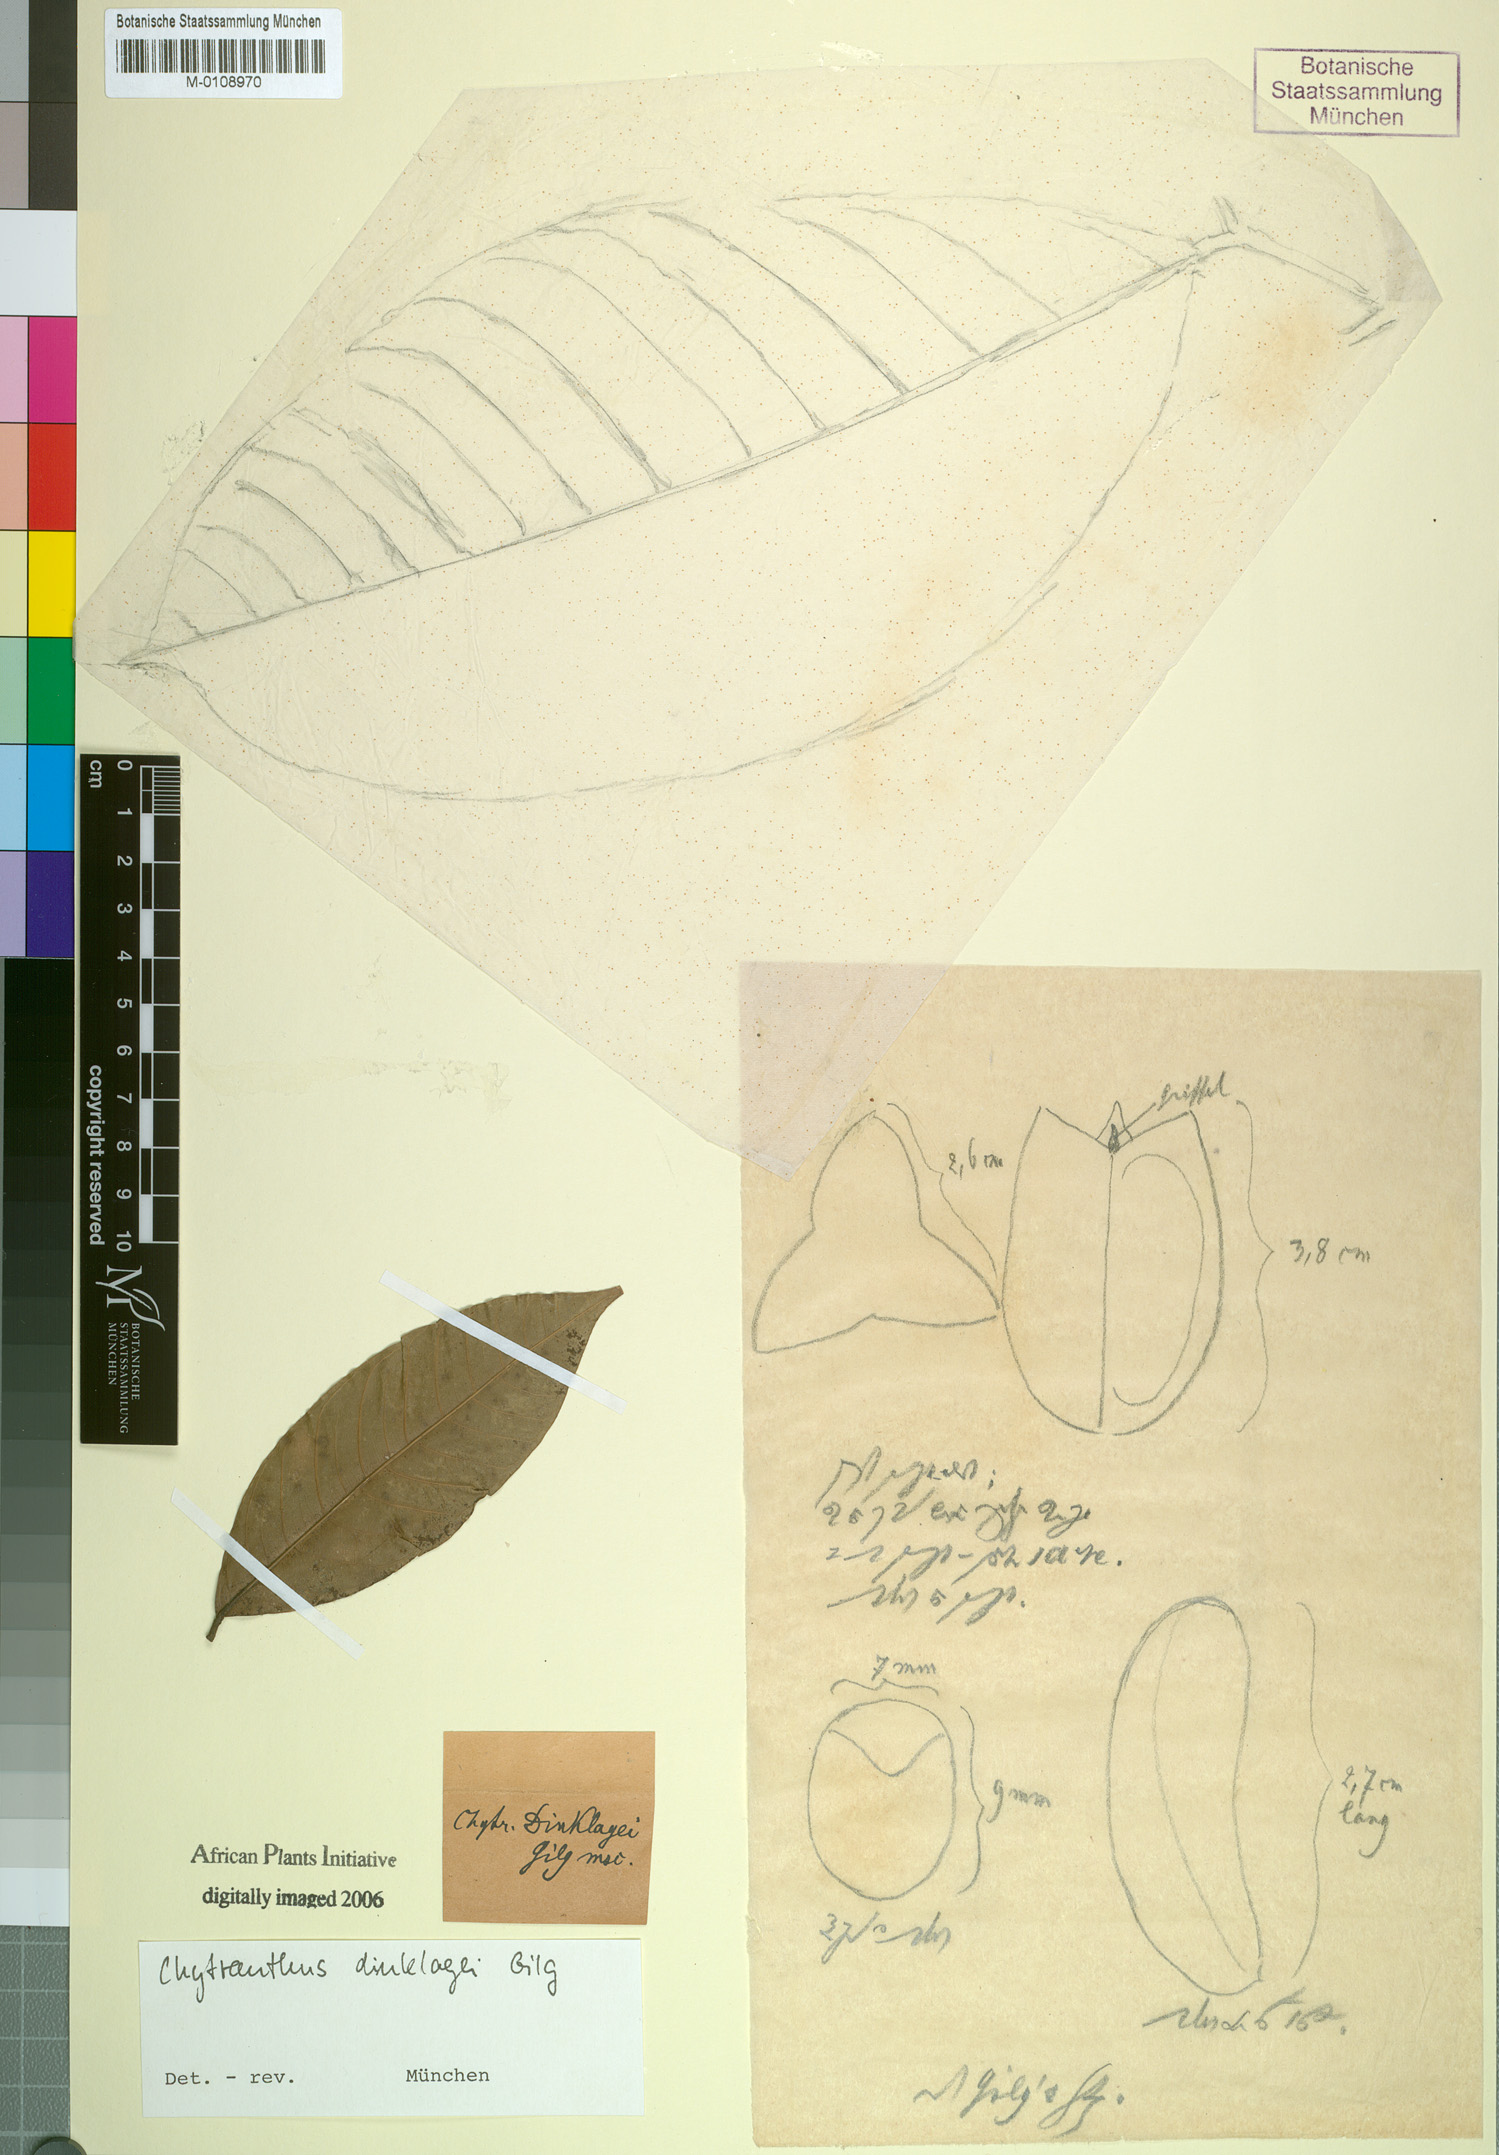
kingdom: Plantae
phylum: Tracheophyta
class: Magnoliopsida
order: Sapindales
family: Sapindaceae
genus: Chytranthus
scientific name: Chytranthus dinklagei
